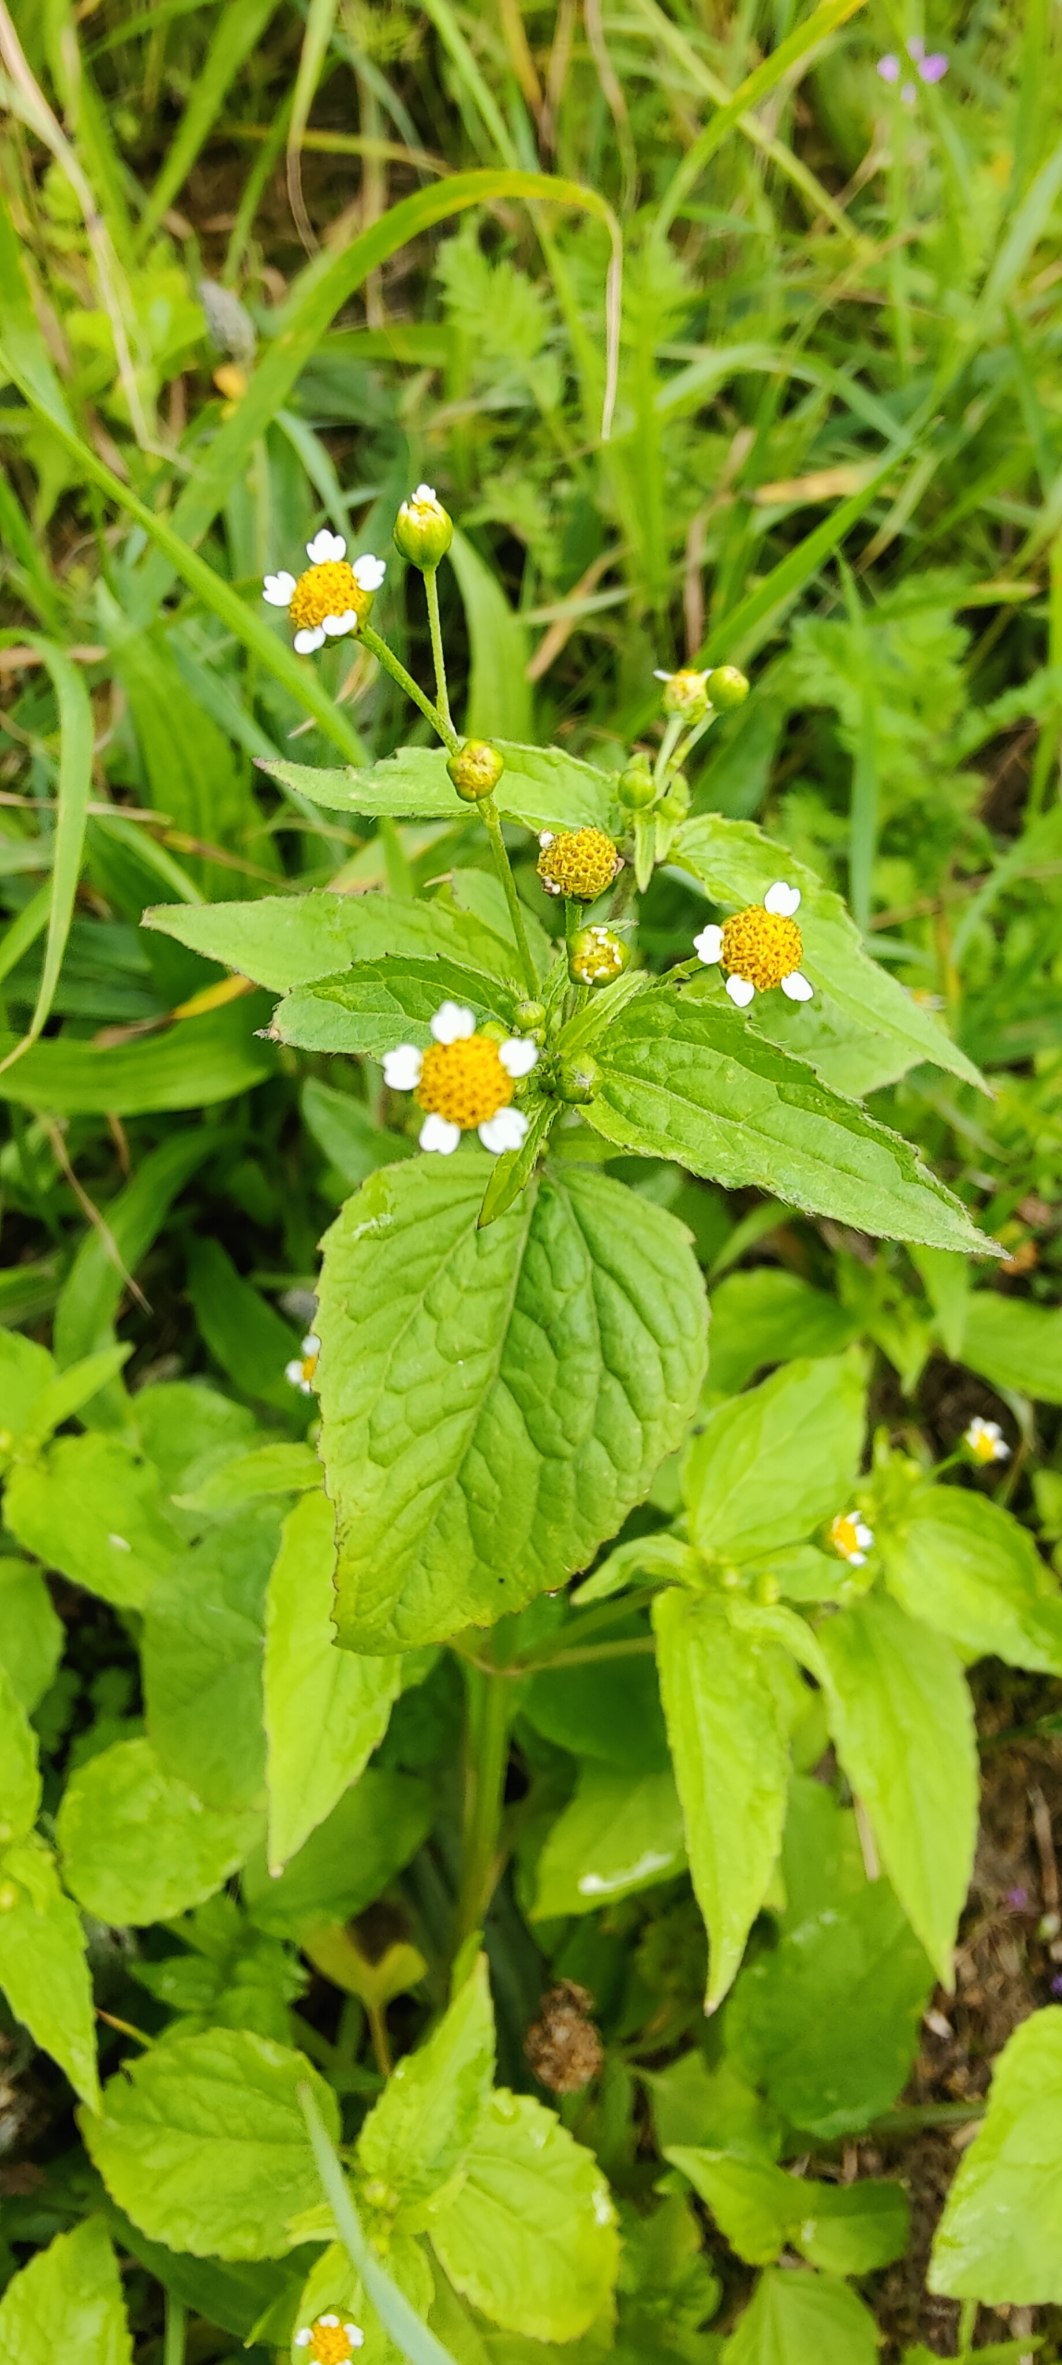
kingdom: Plantae
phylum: Tracheophyta
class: Magnoliopsida
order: Asterales
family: Asteraceae
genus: Galinsoga
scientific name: Galinsoga parviflora
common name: Håret kortstråle
